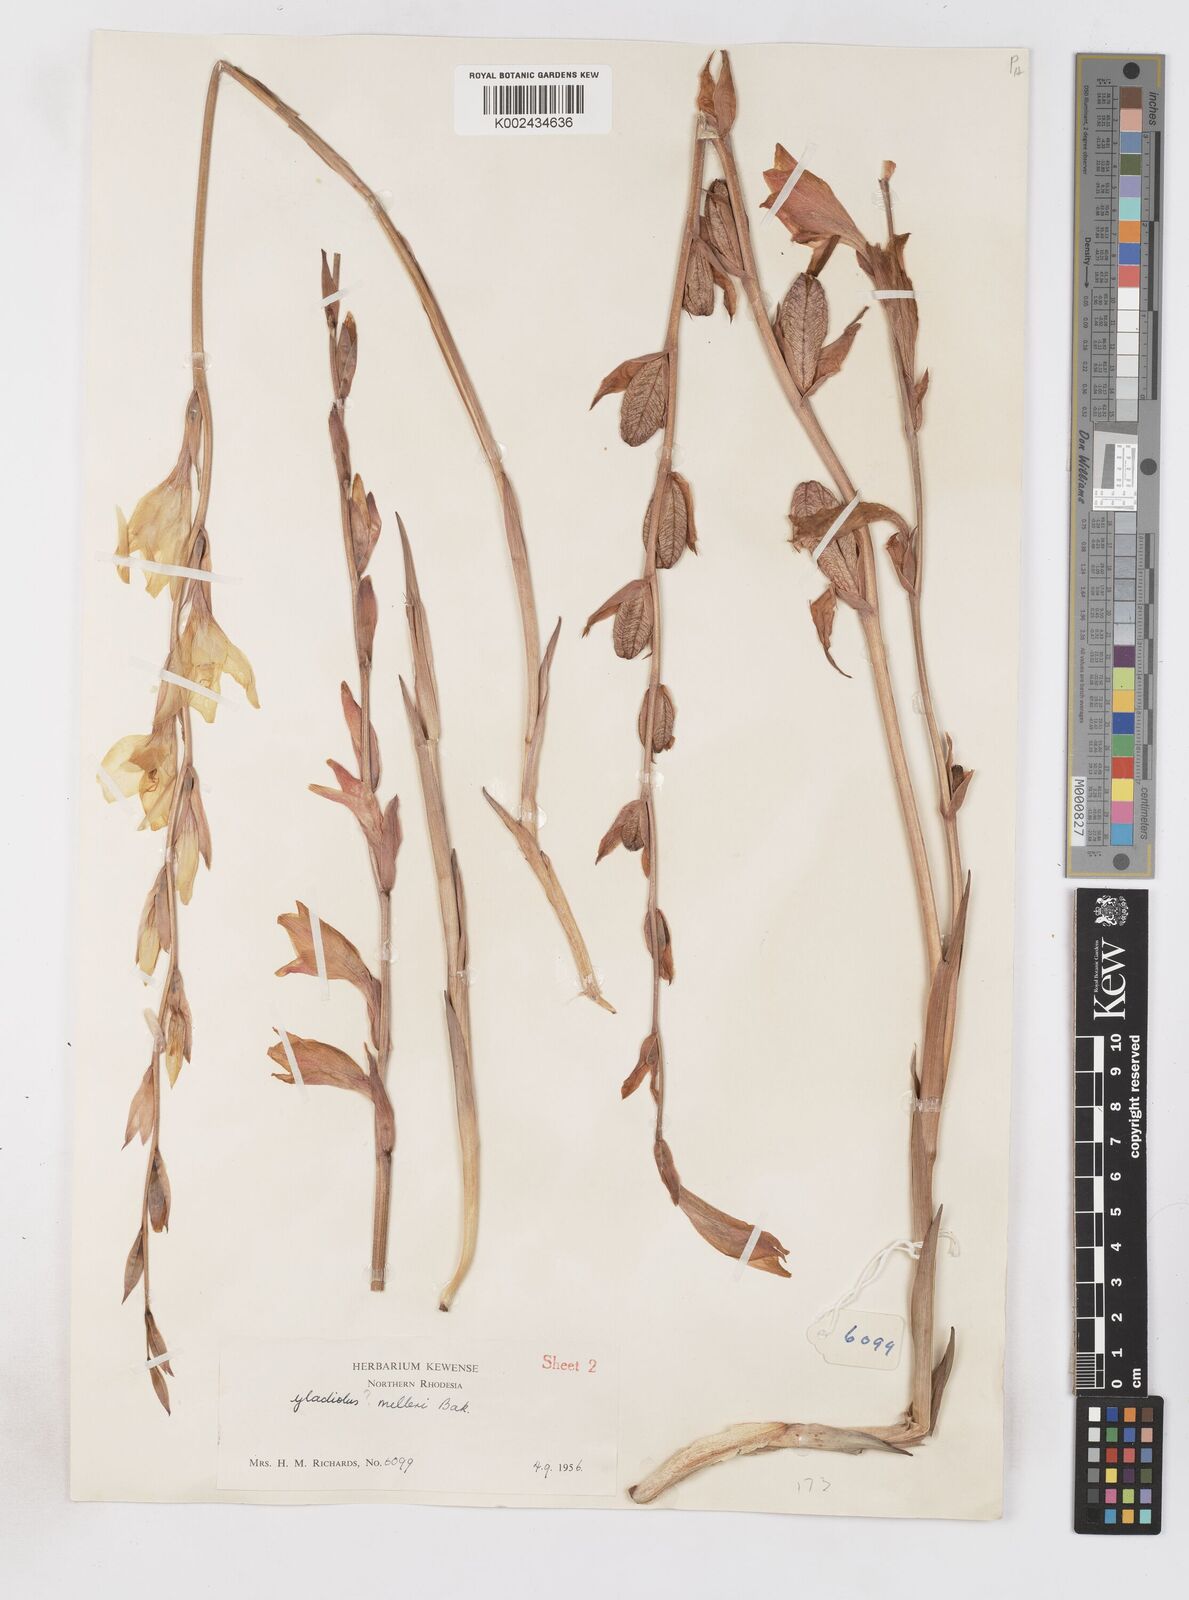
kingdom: Plantae
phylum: Tracheophyta
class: Liliopsida
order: Asparagales
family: Iridaceae
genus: Gladiolus
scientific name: Gladiolus melleri
